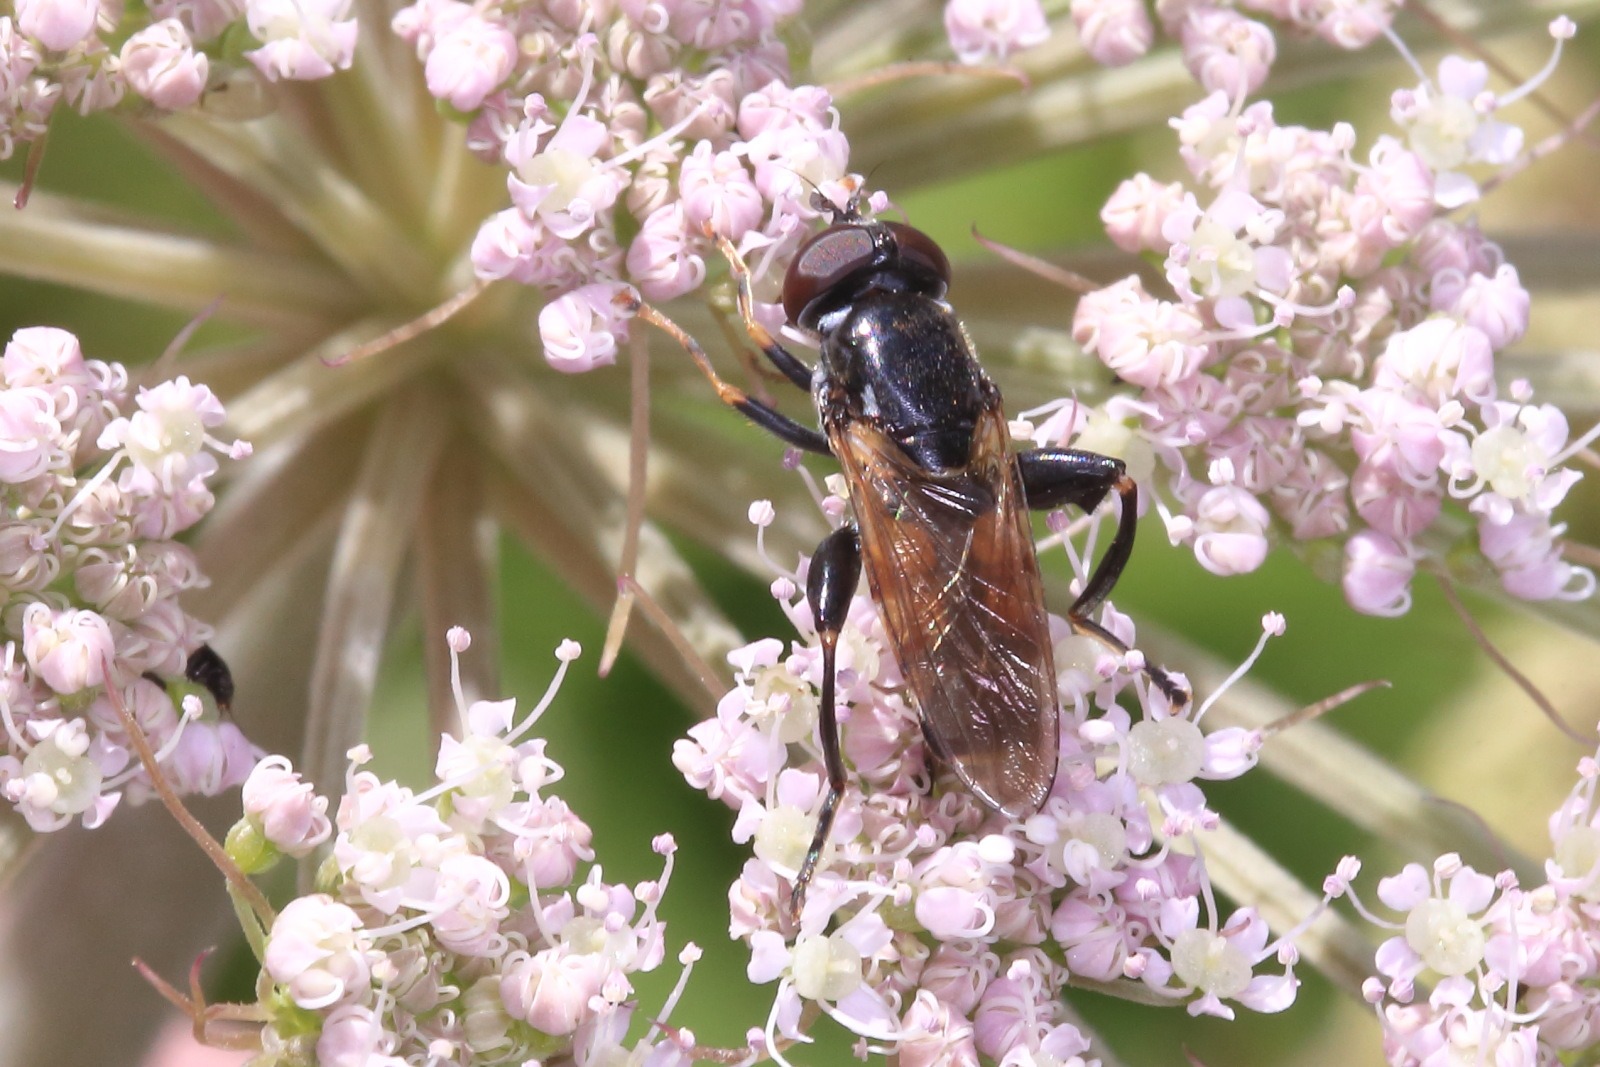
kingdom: Animalia
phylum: Arthropoda
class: Insecta
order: Diptera
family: Syrphidae
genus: Tropidia
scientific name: Tropidia scita
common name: Køl-svirreflue
